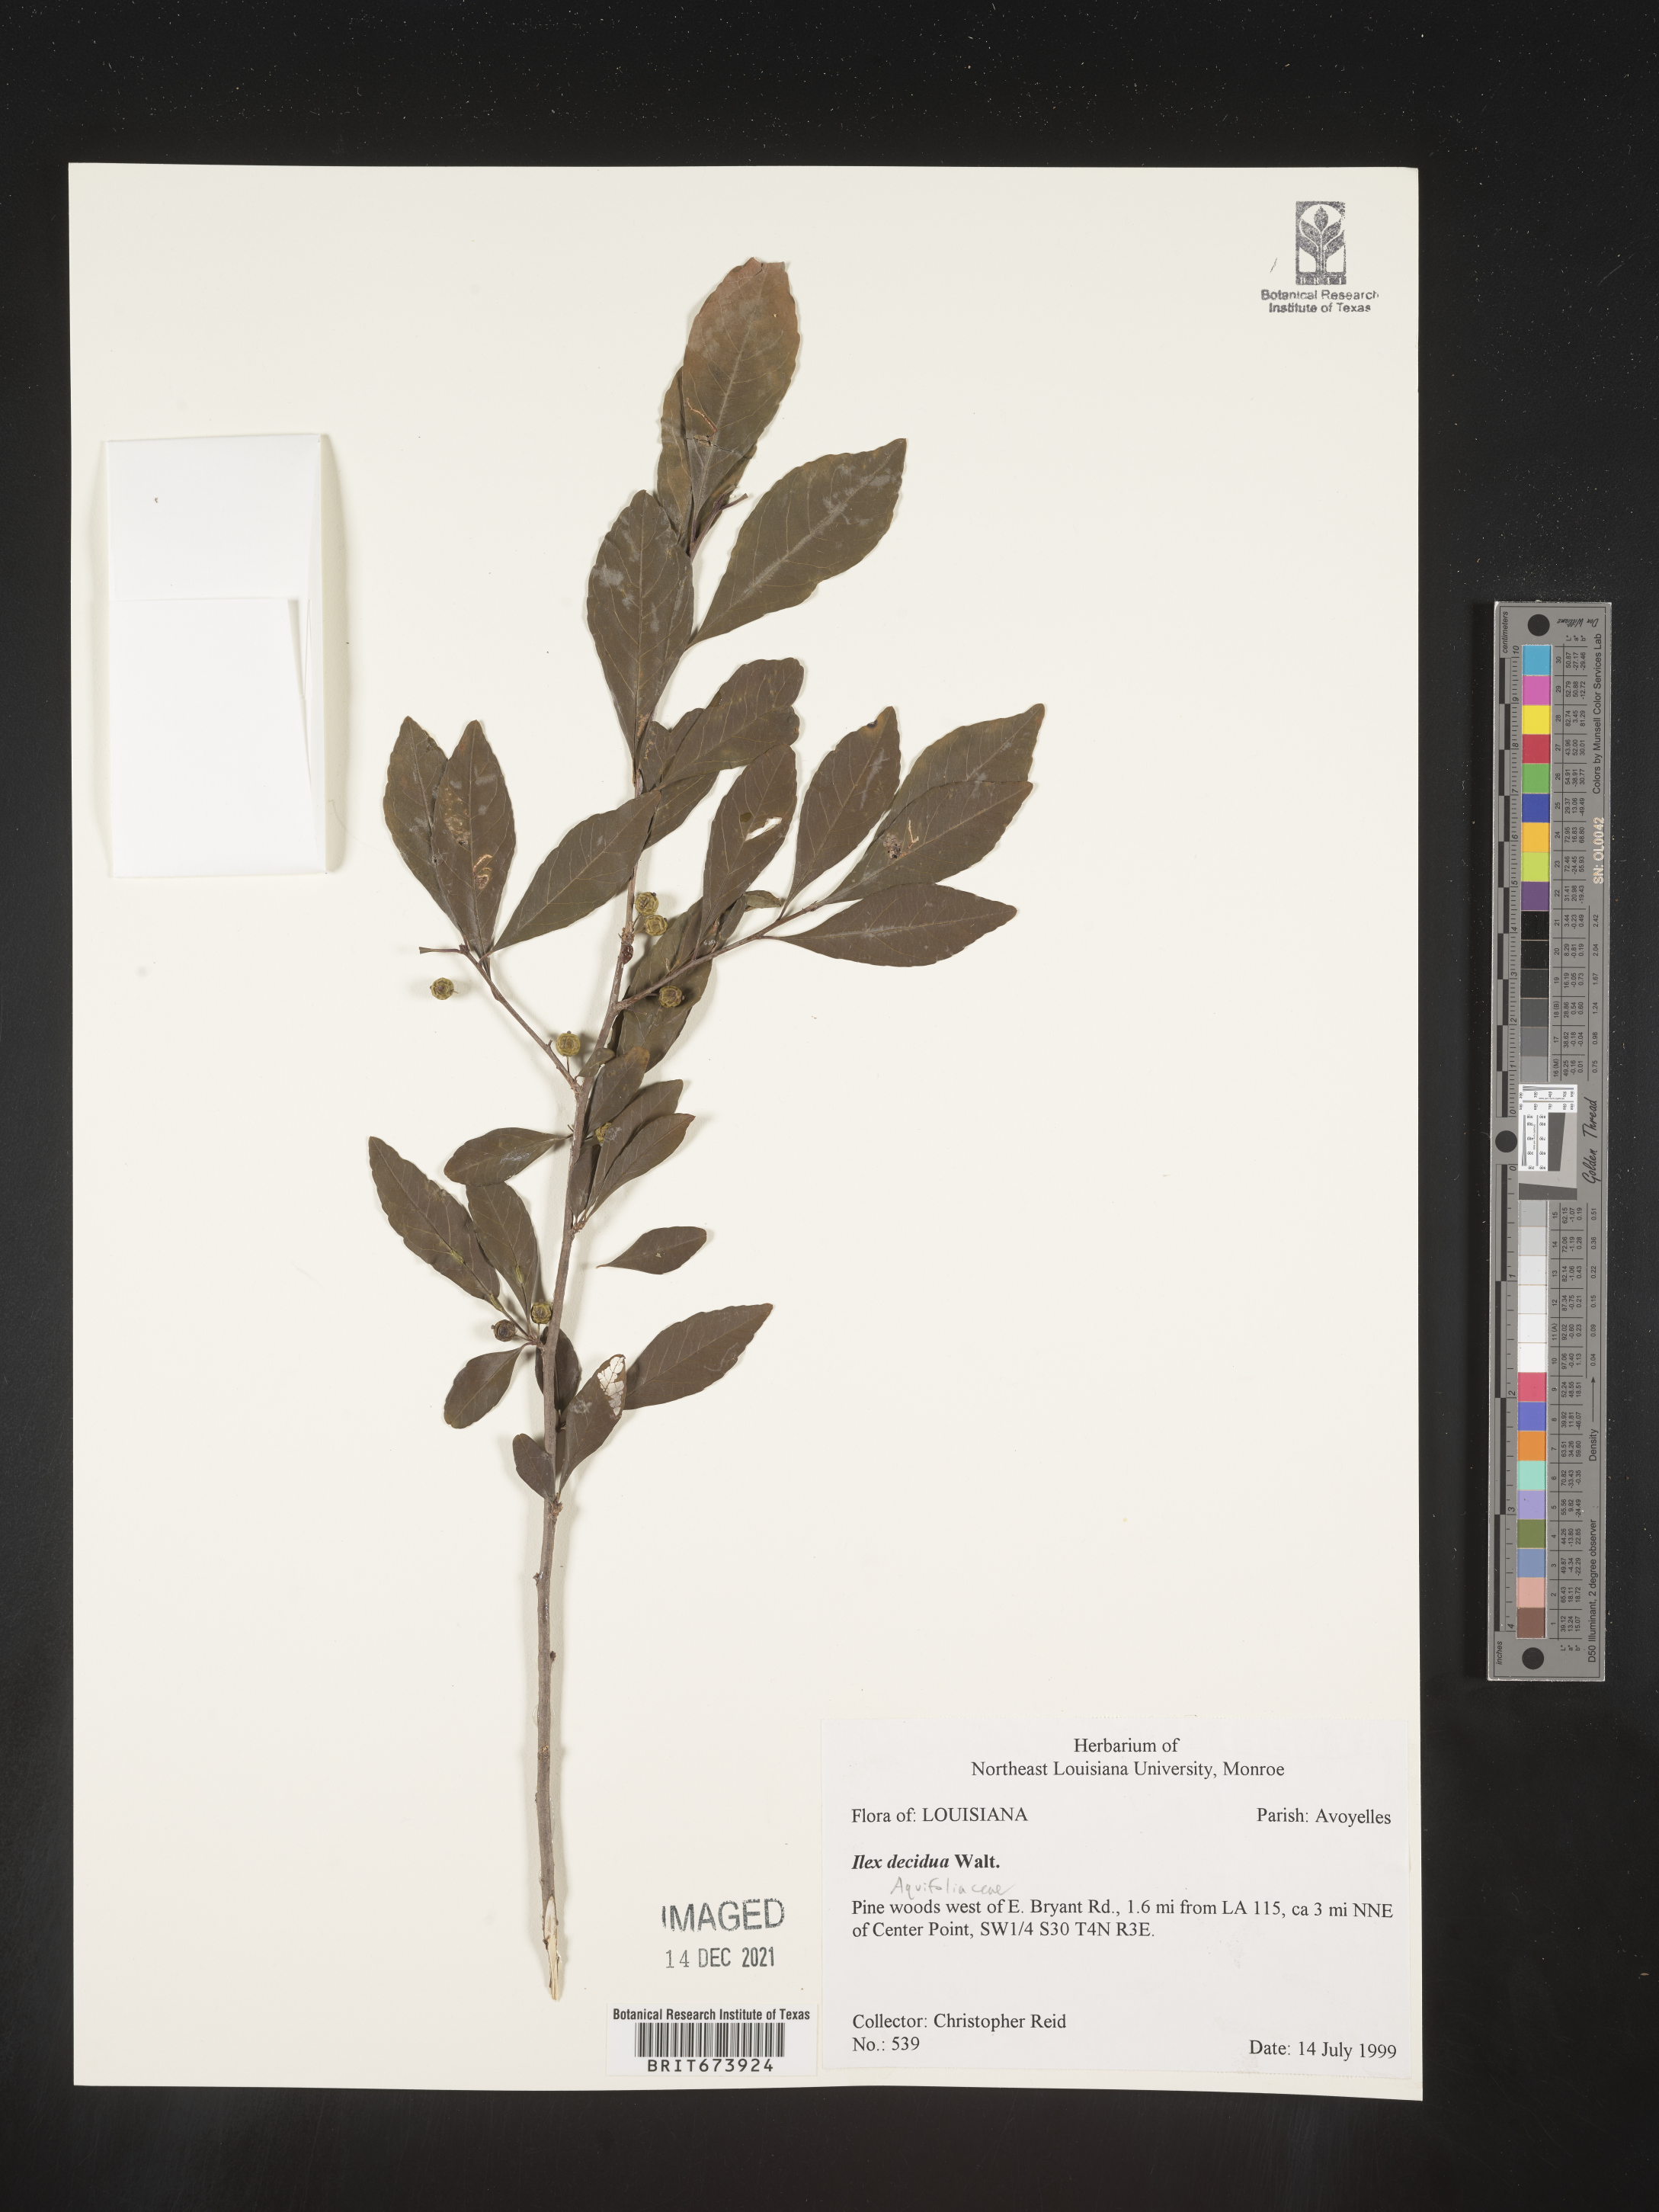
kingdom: Plantae
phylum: Tracheophyta
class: Magnoliopsida
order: Aquifoliales
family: Aquifoliaceae
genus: Ilex
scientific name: Ilex decidua
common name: Possum-haw
